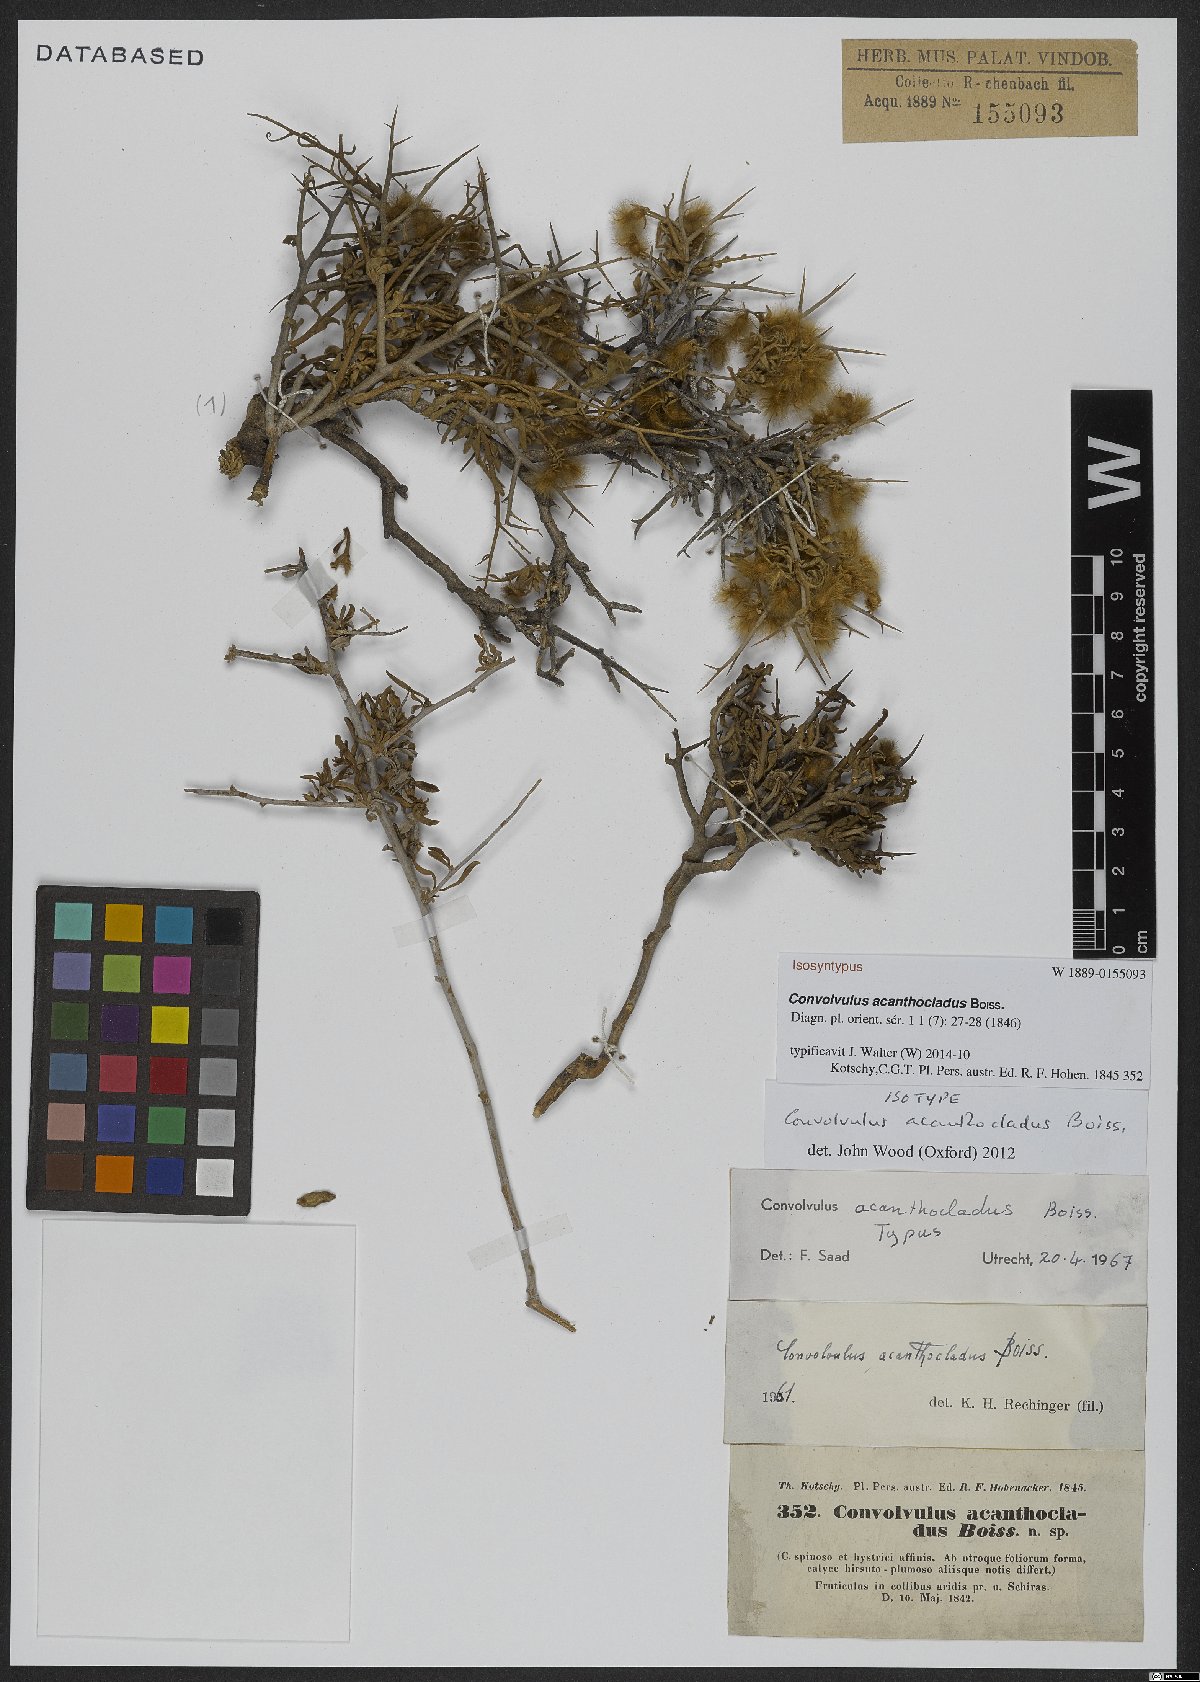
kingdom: Plantae
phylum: Tracheophyta
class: Magnoliopsida
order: Solanales
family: Convolvulaceae
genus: Convolvulus
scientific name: Convolvulus acanthocladus
